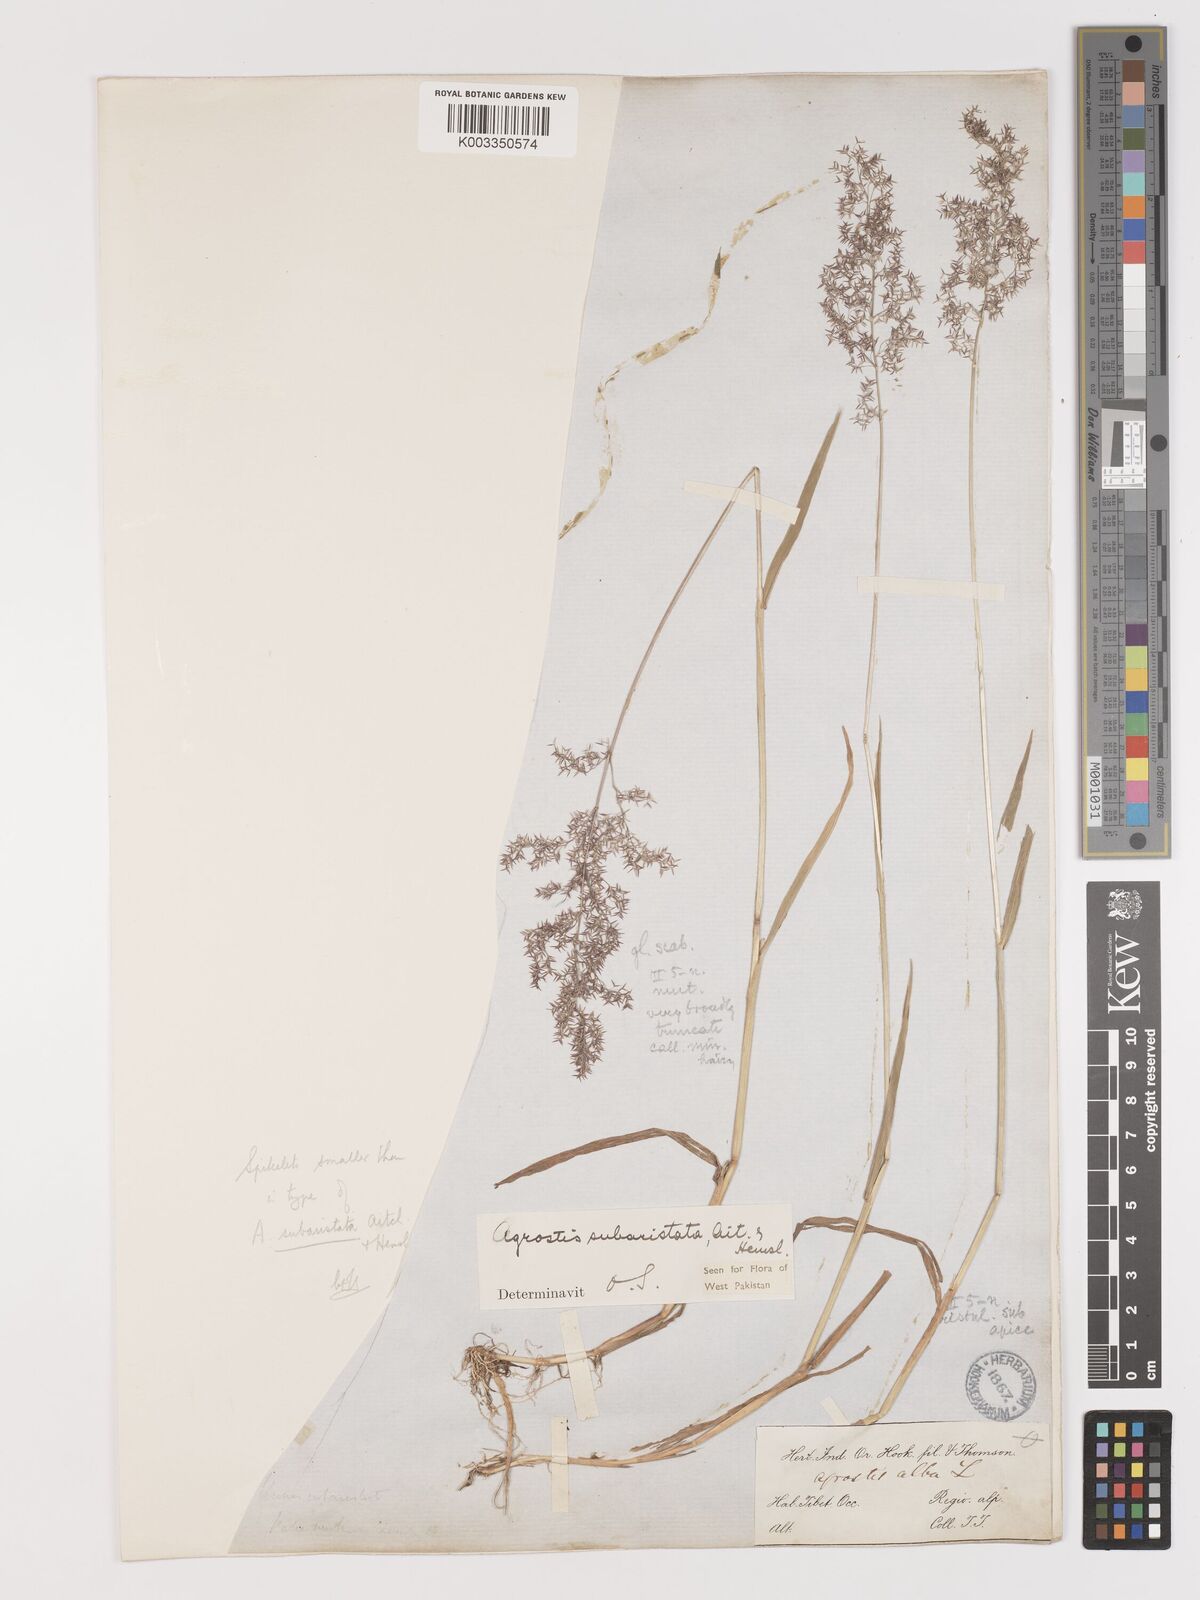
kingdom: Plantae
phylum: Tracheophyta
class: Liliopsida
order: Poales
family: Poaceae
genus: Agropogon
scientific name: Agropogon lutosus
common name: Coast agropogon
